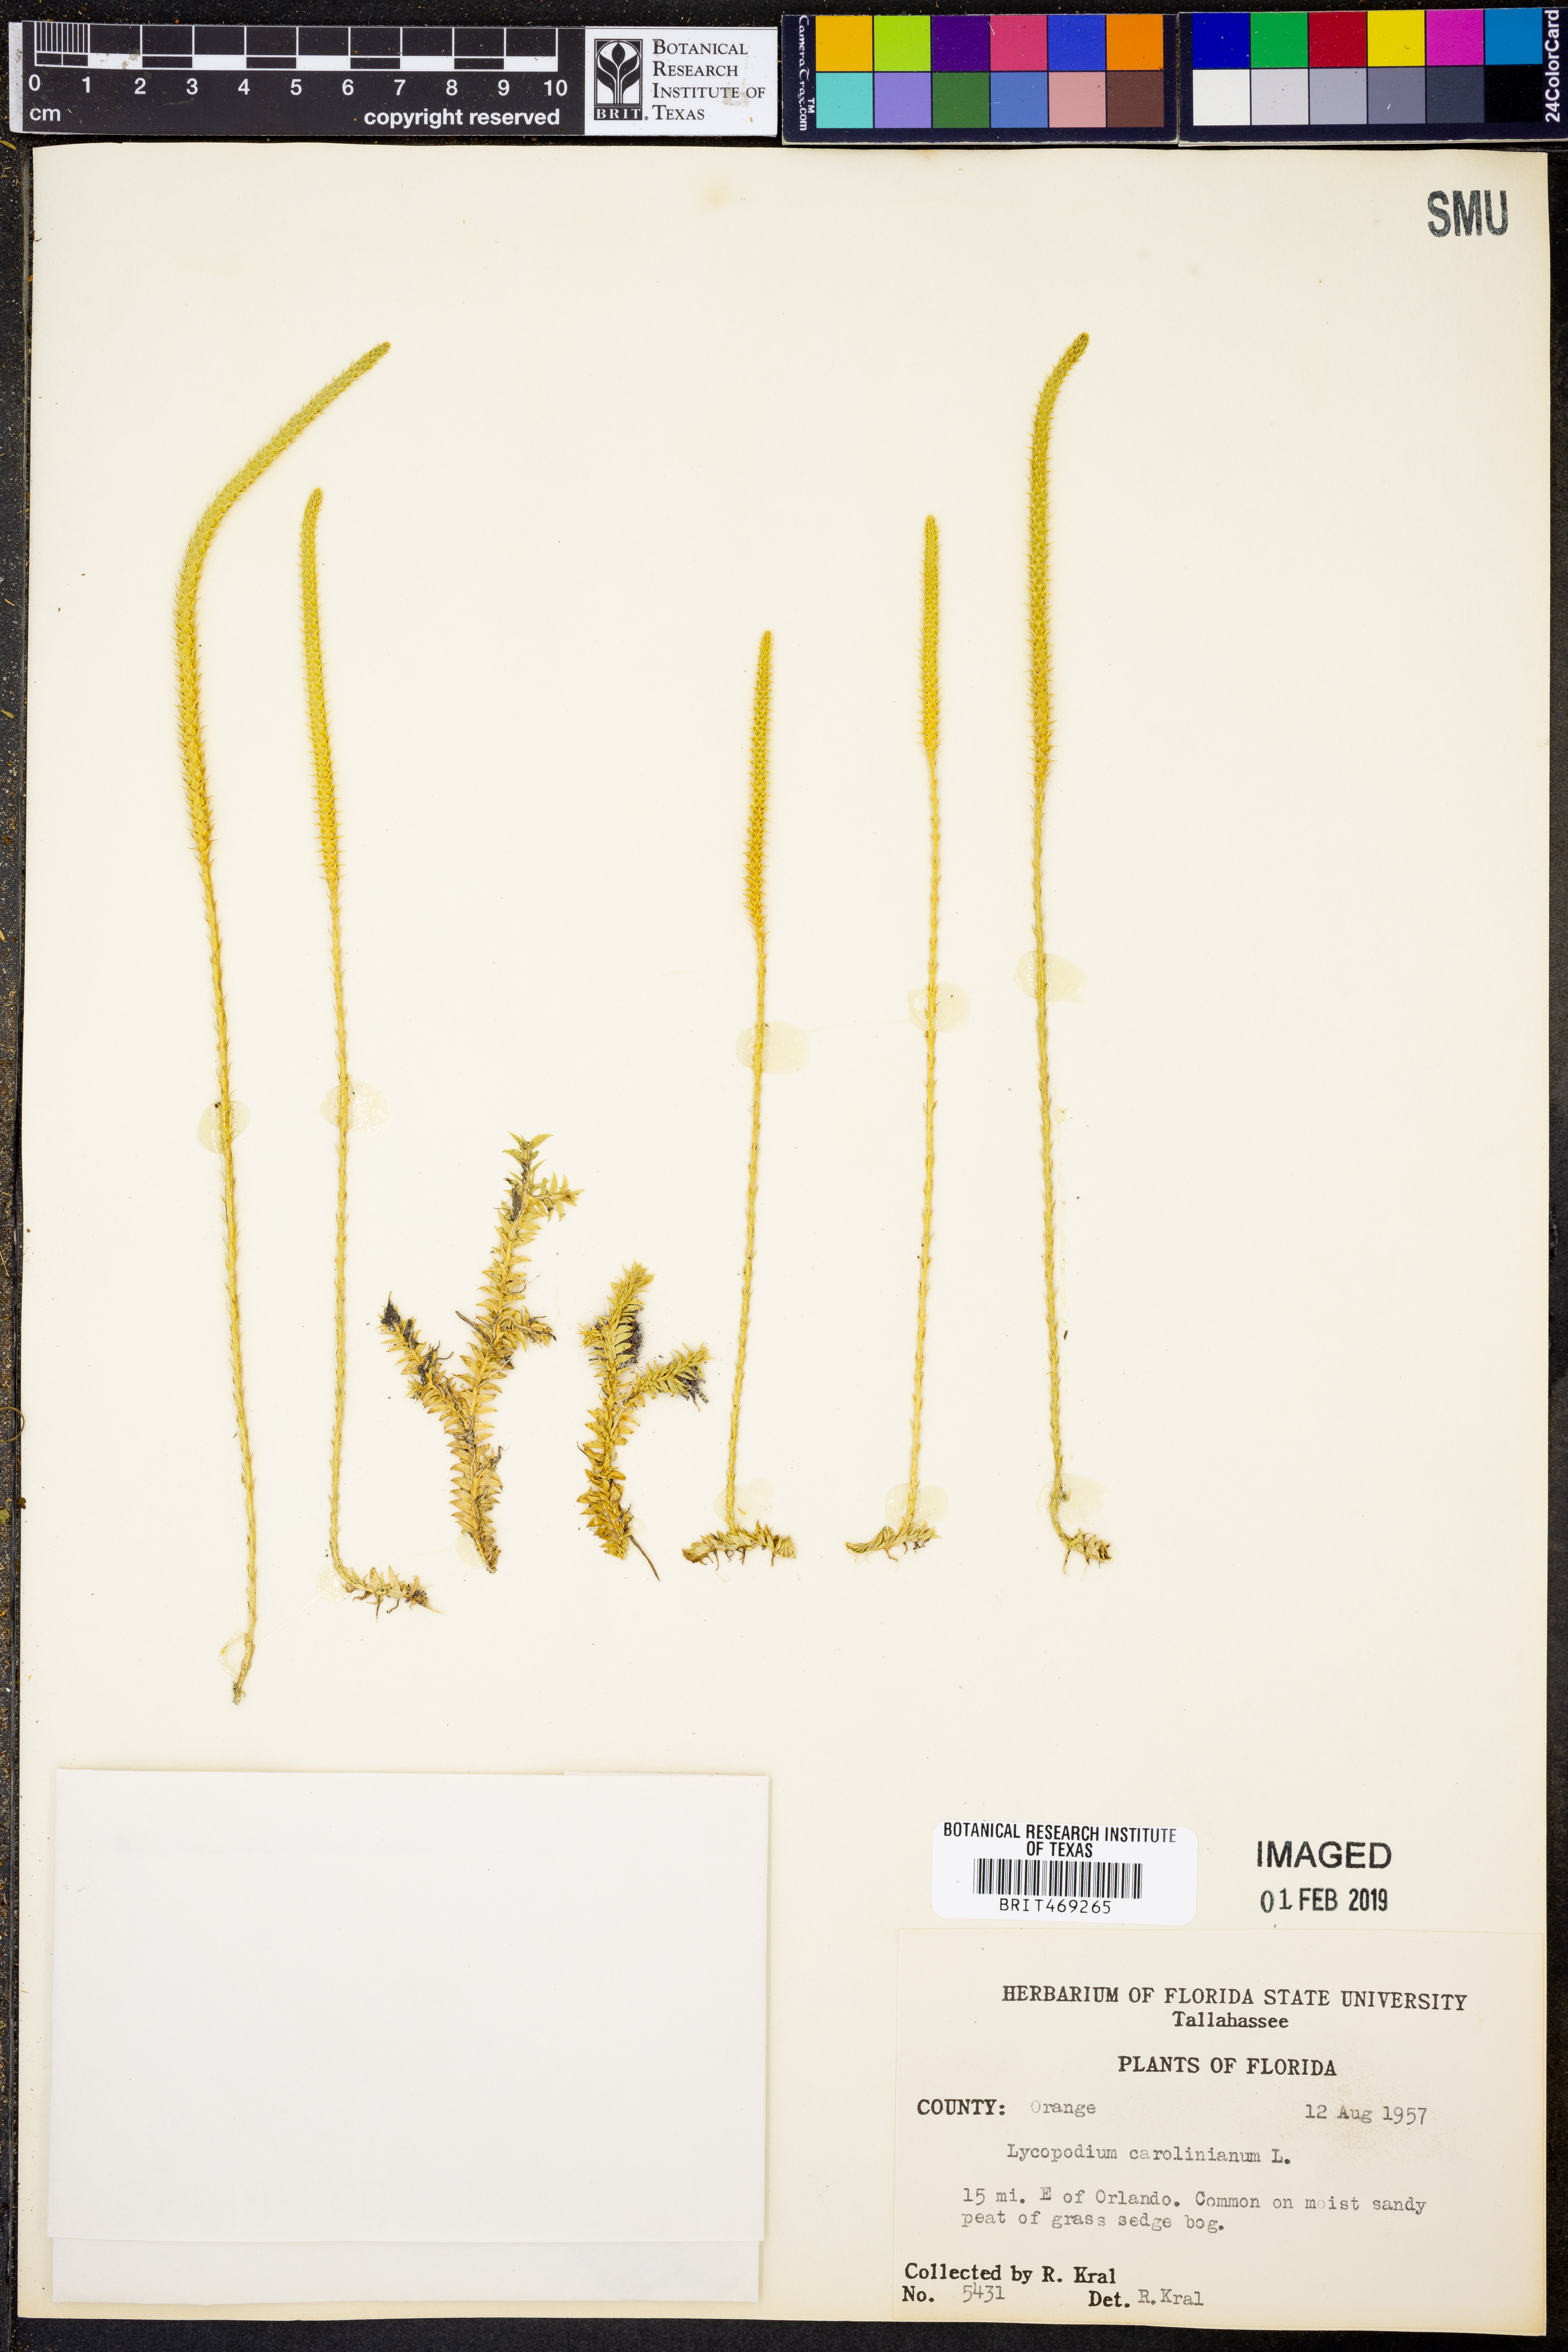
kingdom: Plantae
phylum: Tracheophyta
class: Lycopodiopsida
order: Lycopodiales
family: Lycopodiaceae
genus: Pseudolycopodiella
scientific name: Pseudolycopodiella caroliniana
